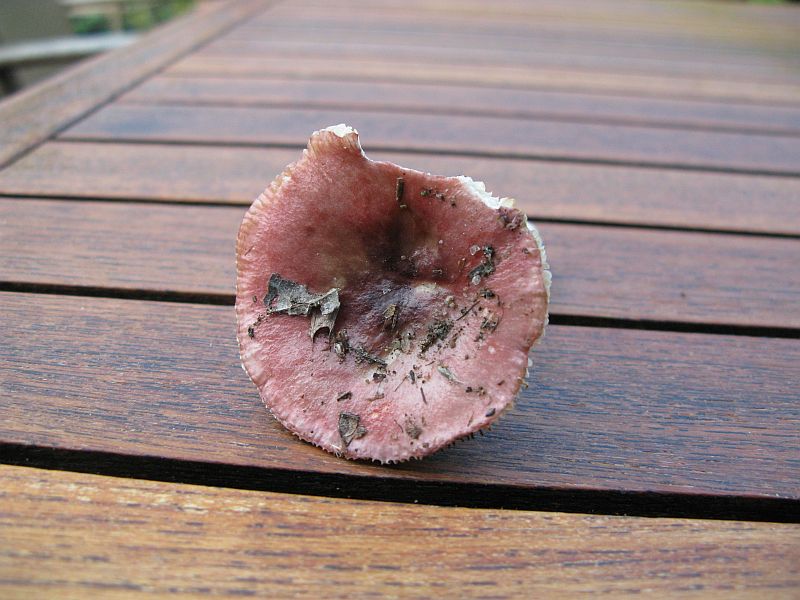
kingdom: Fungi
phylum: Basidiomycota
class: Agaricomycetes
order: Russulales
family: Russulaceae
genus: Russula
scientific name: Russula depallens
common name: falmende skørhat
